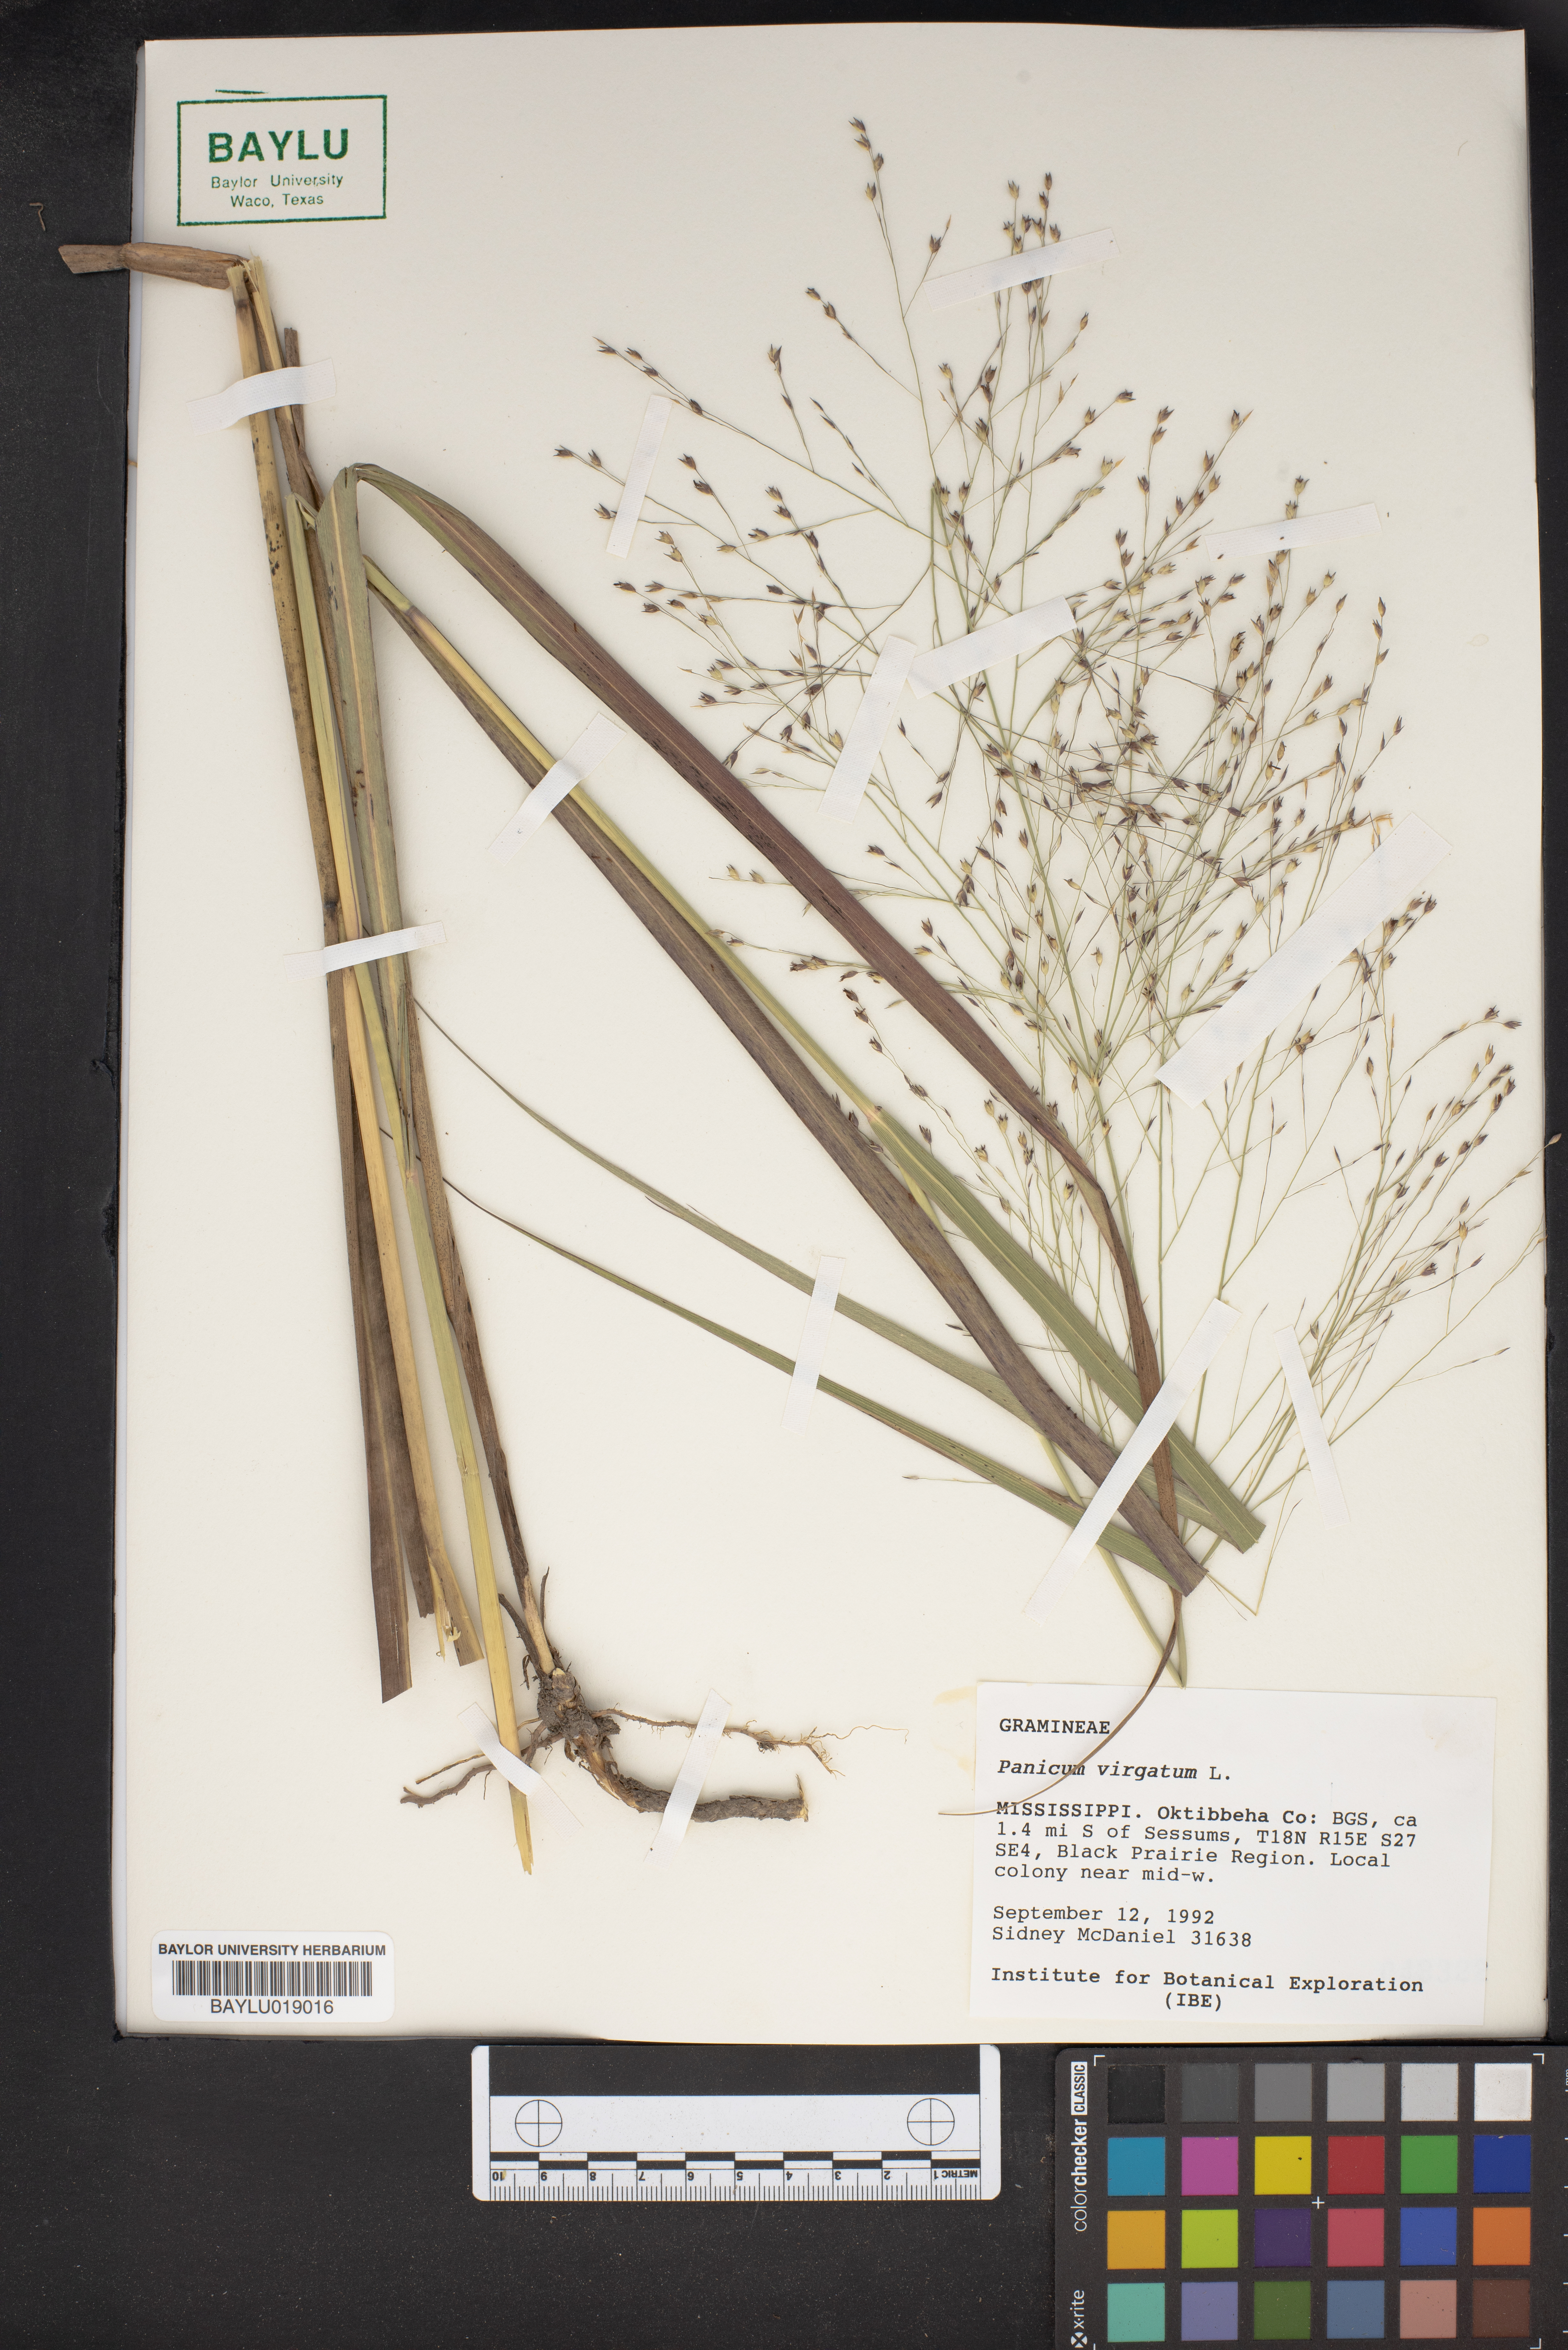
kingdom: Plantae
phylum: Tracheophyta
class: Liliopsida
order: Poales
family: Poaceae
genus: Panicum
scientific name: Panicum virgatum
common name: Switchgrass
